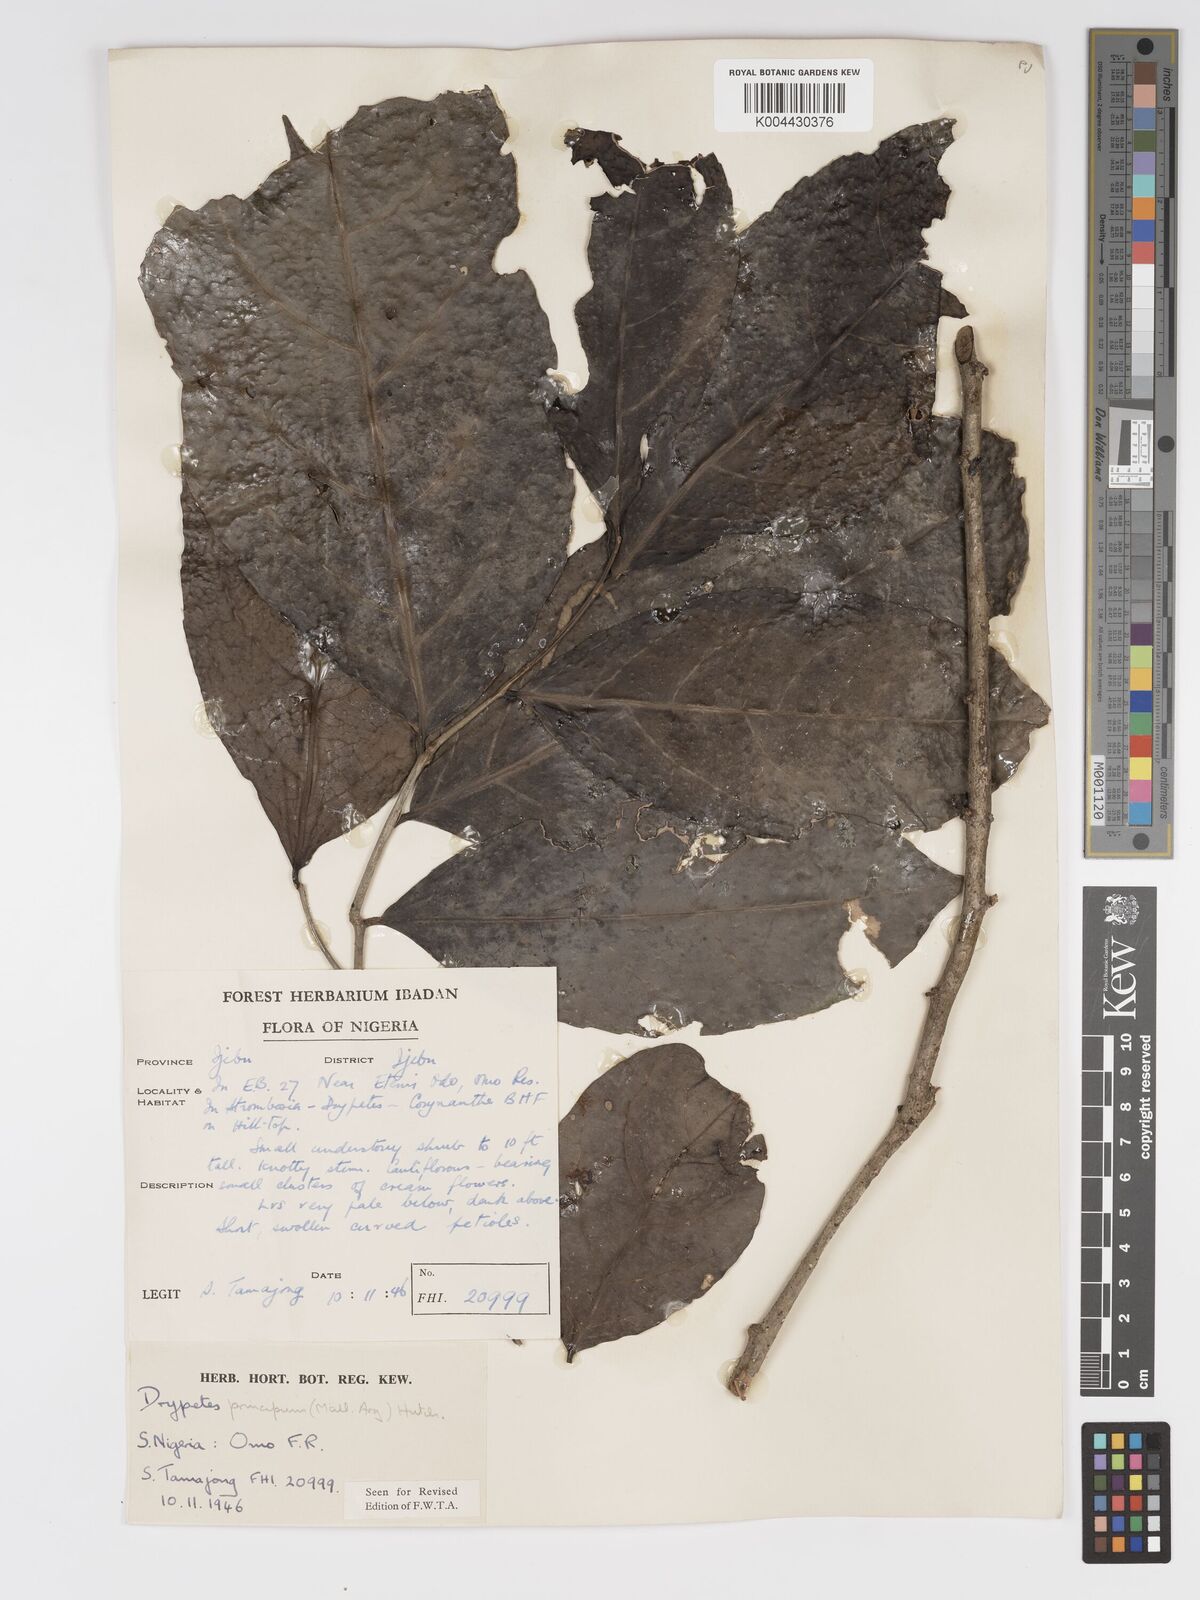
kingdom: Plantae
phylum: Tracheophyta
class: Magnoliopsida
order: Malpighiales
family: Putranjivaceae
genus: Drypetes
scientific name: Drypetes principum
